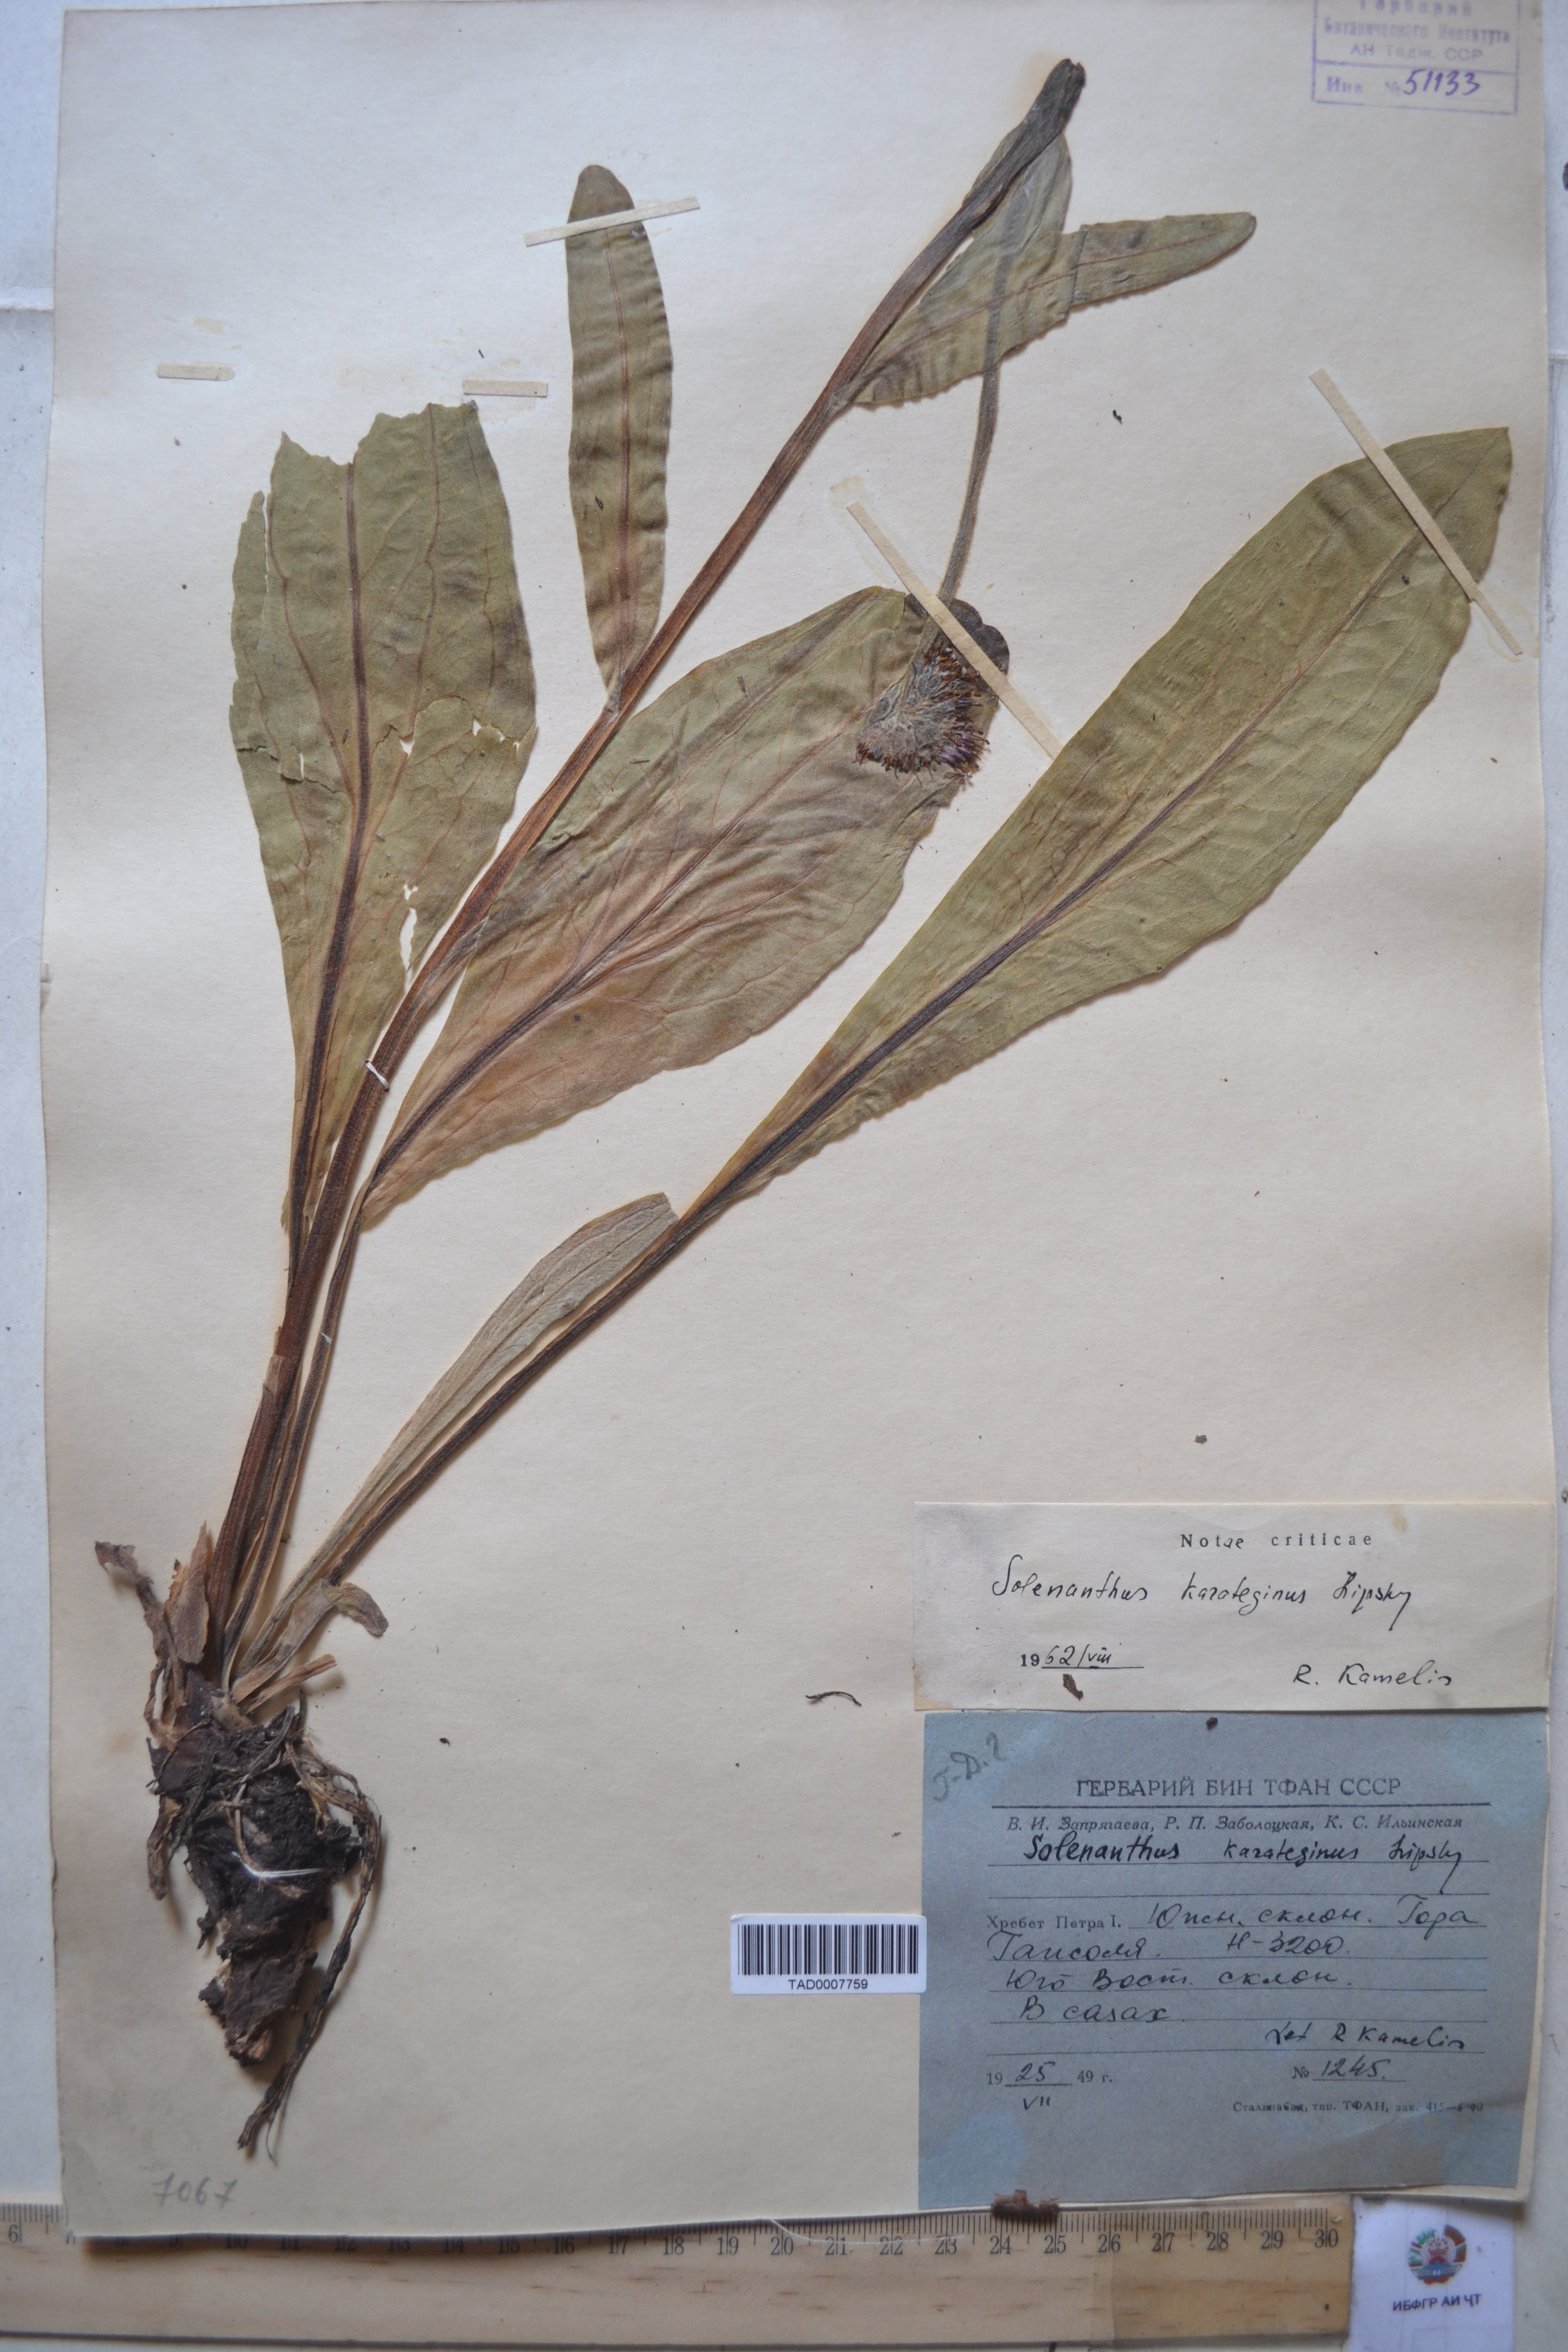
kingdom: Plantae
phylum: Tracheophyta
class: Magnoliopsida
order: Boraginales
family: Boraginaceae
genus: Solenanthus
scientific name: Solenanthus karateginus
